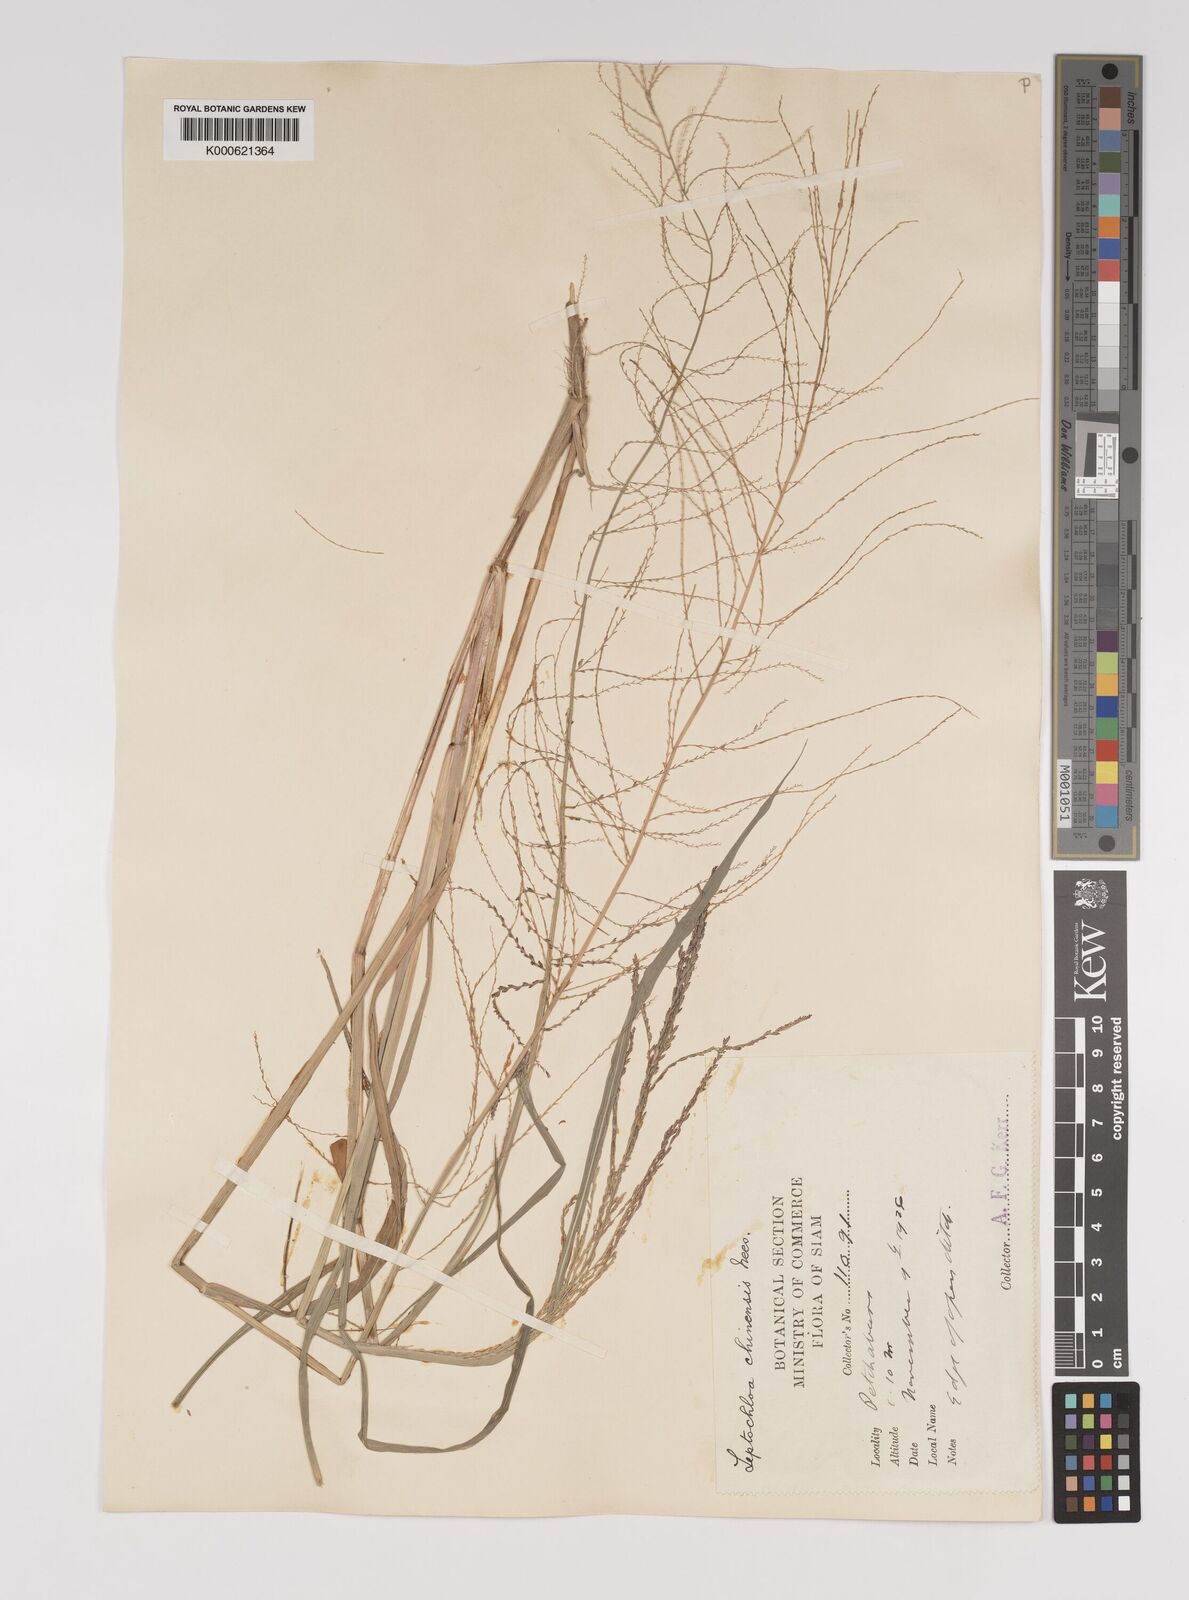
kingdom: Plantae
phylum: Tracheophyta
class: Liliopsida
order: Poales
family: Poaceae
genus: Leptochloa
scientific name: Leptochloa chinensis
